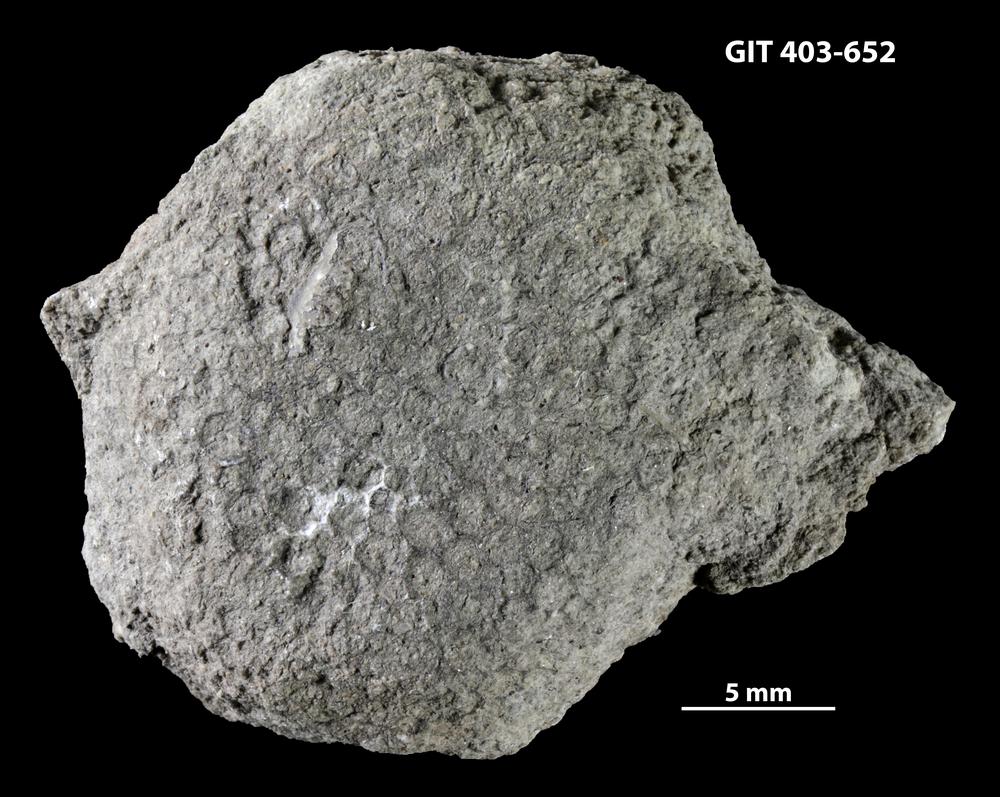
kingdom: Animalia
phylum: Cnidaria
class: Anthozoa
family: Favositidae
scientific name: Favositidae
